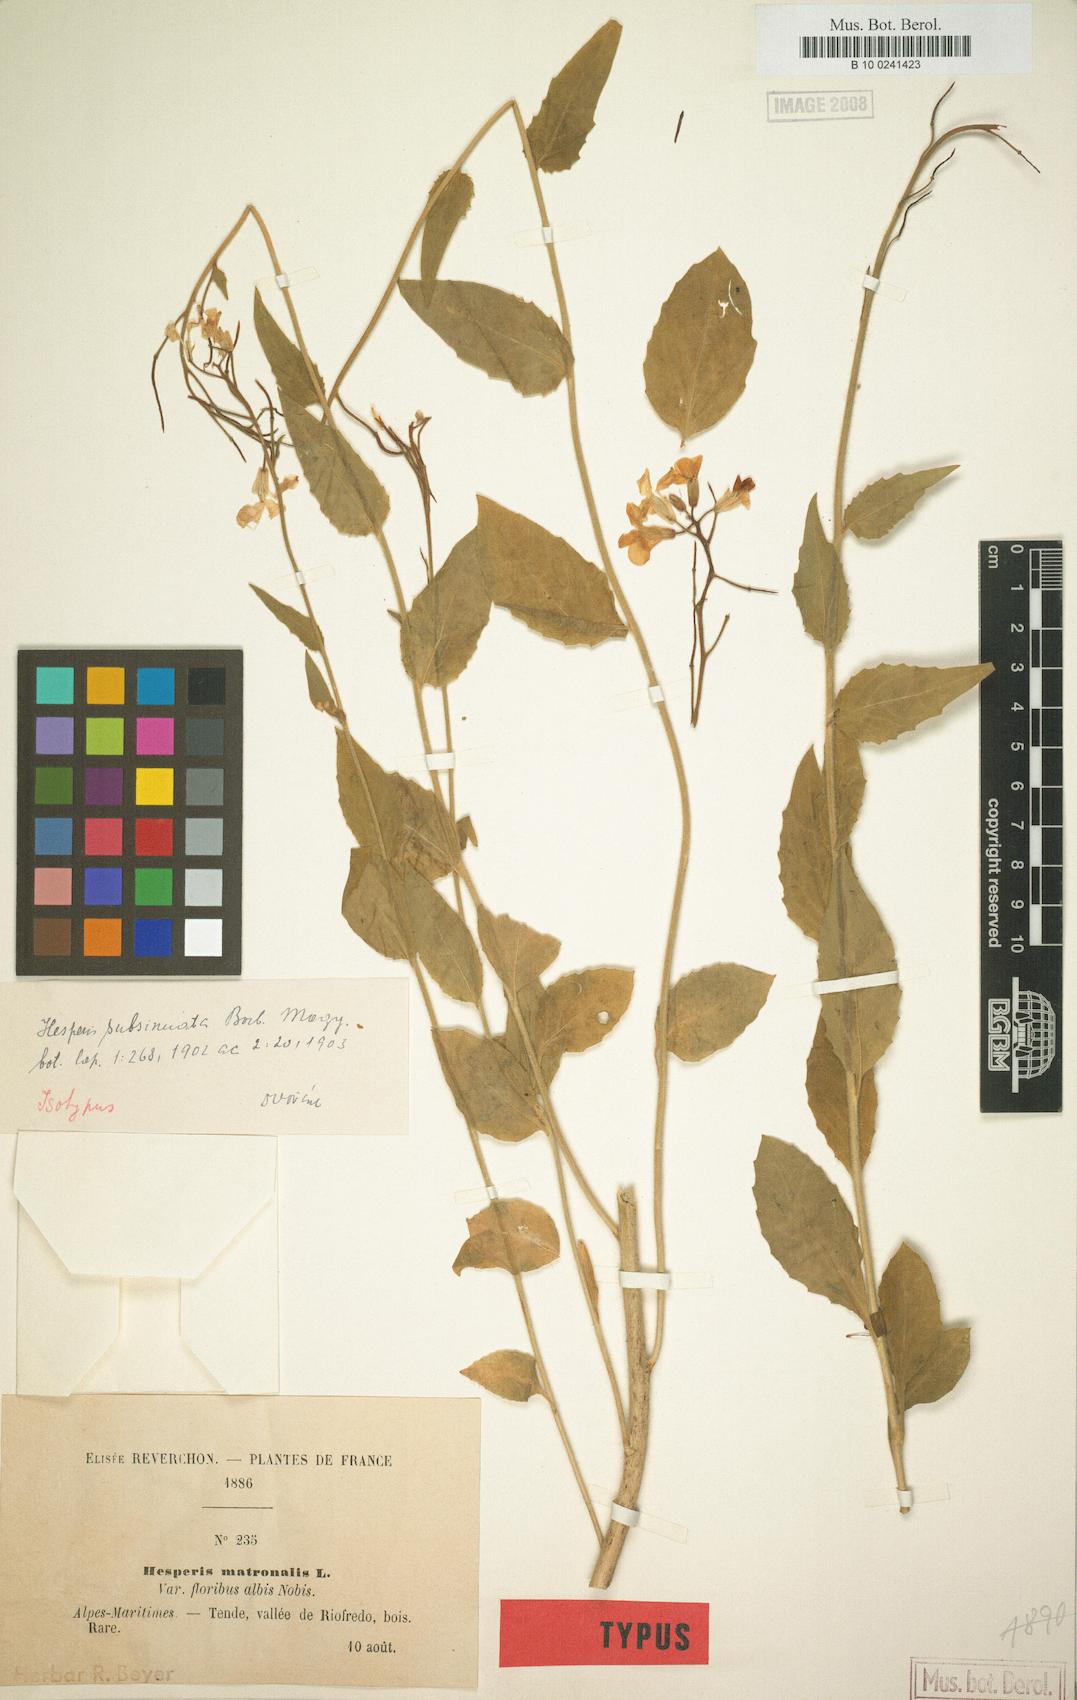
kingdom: Plantae
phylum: Tracheophyta
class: Magnoliopsida
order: Brassicales
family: Brassicaceae
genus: Hesperis
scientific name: Hesperis inodora
